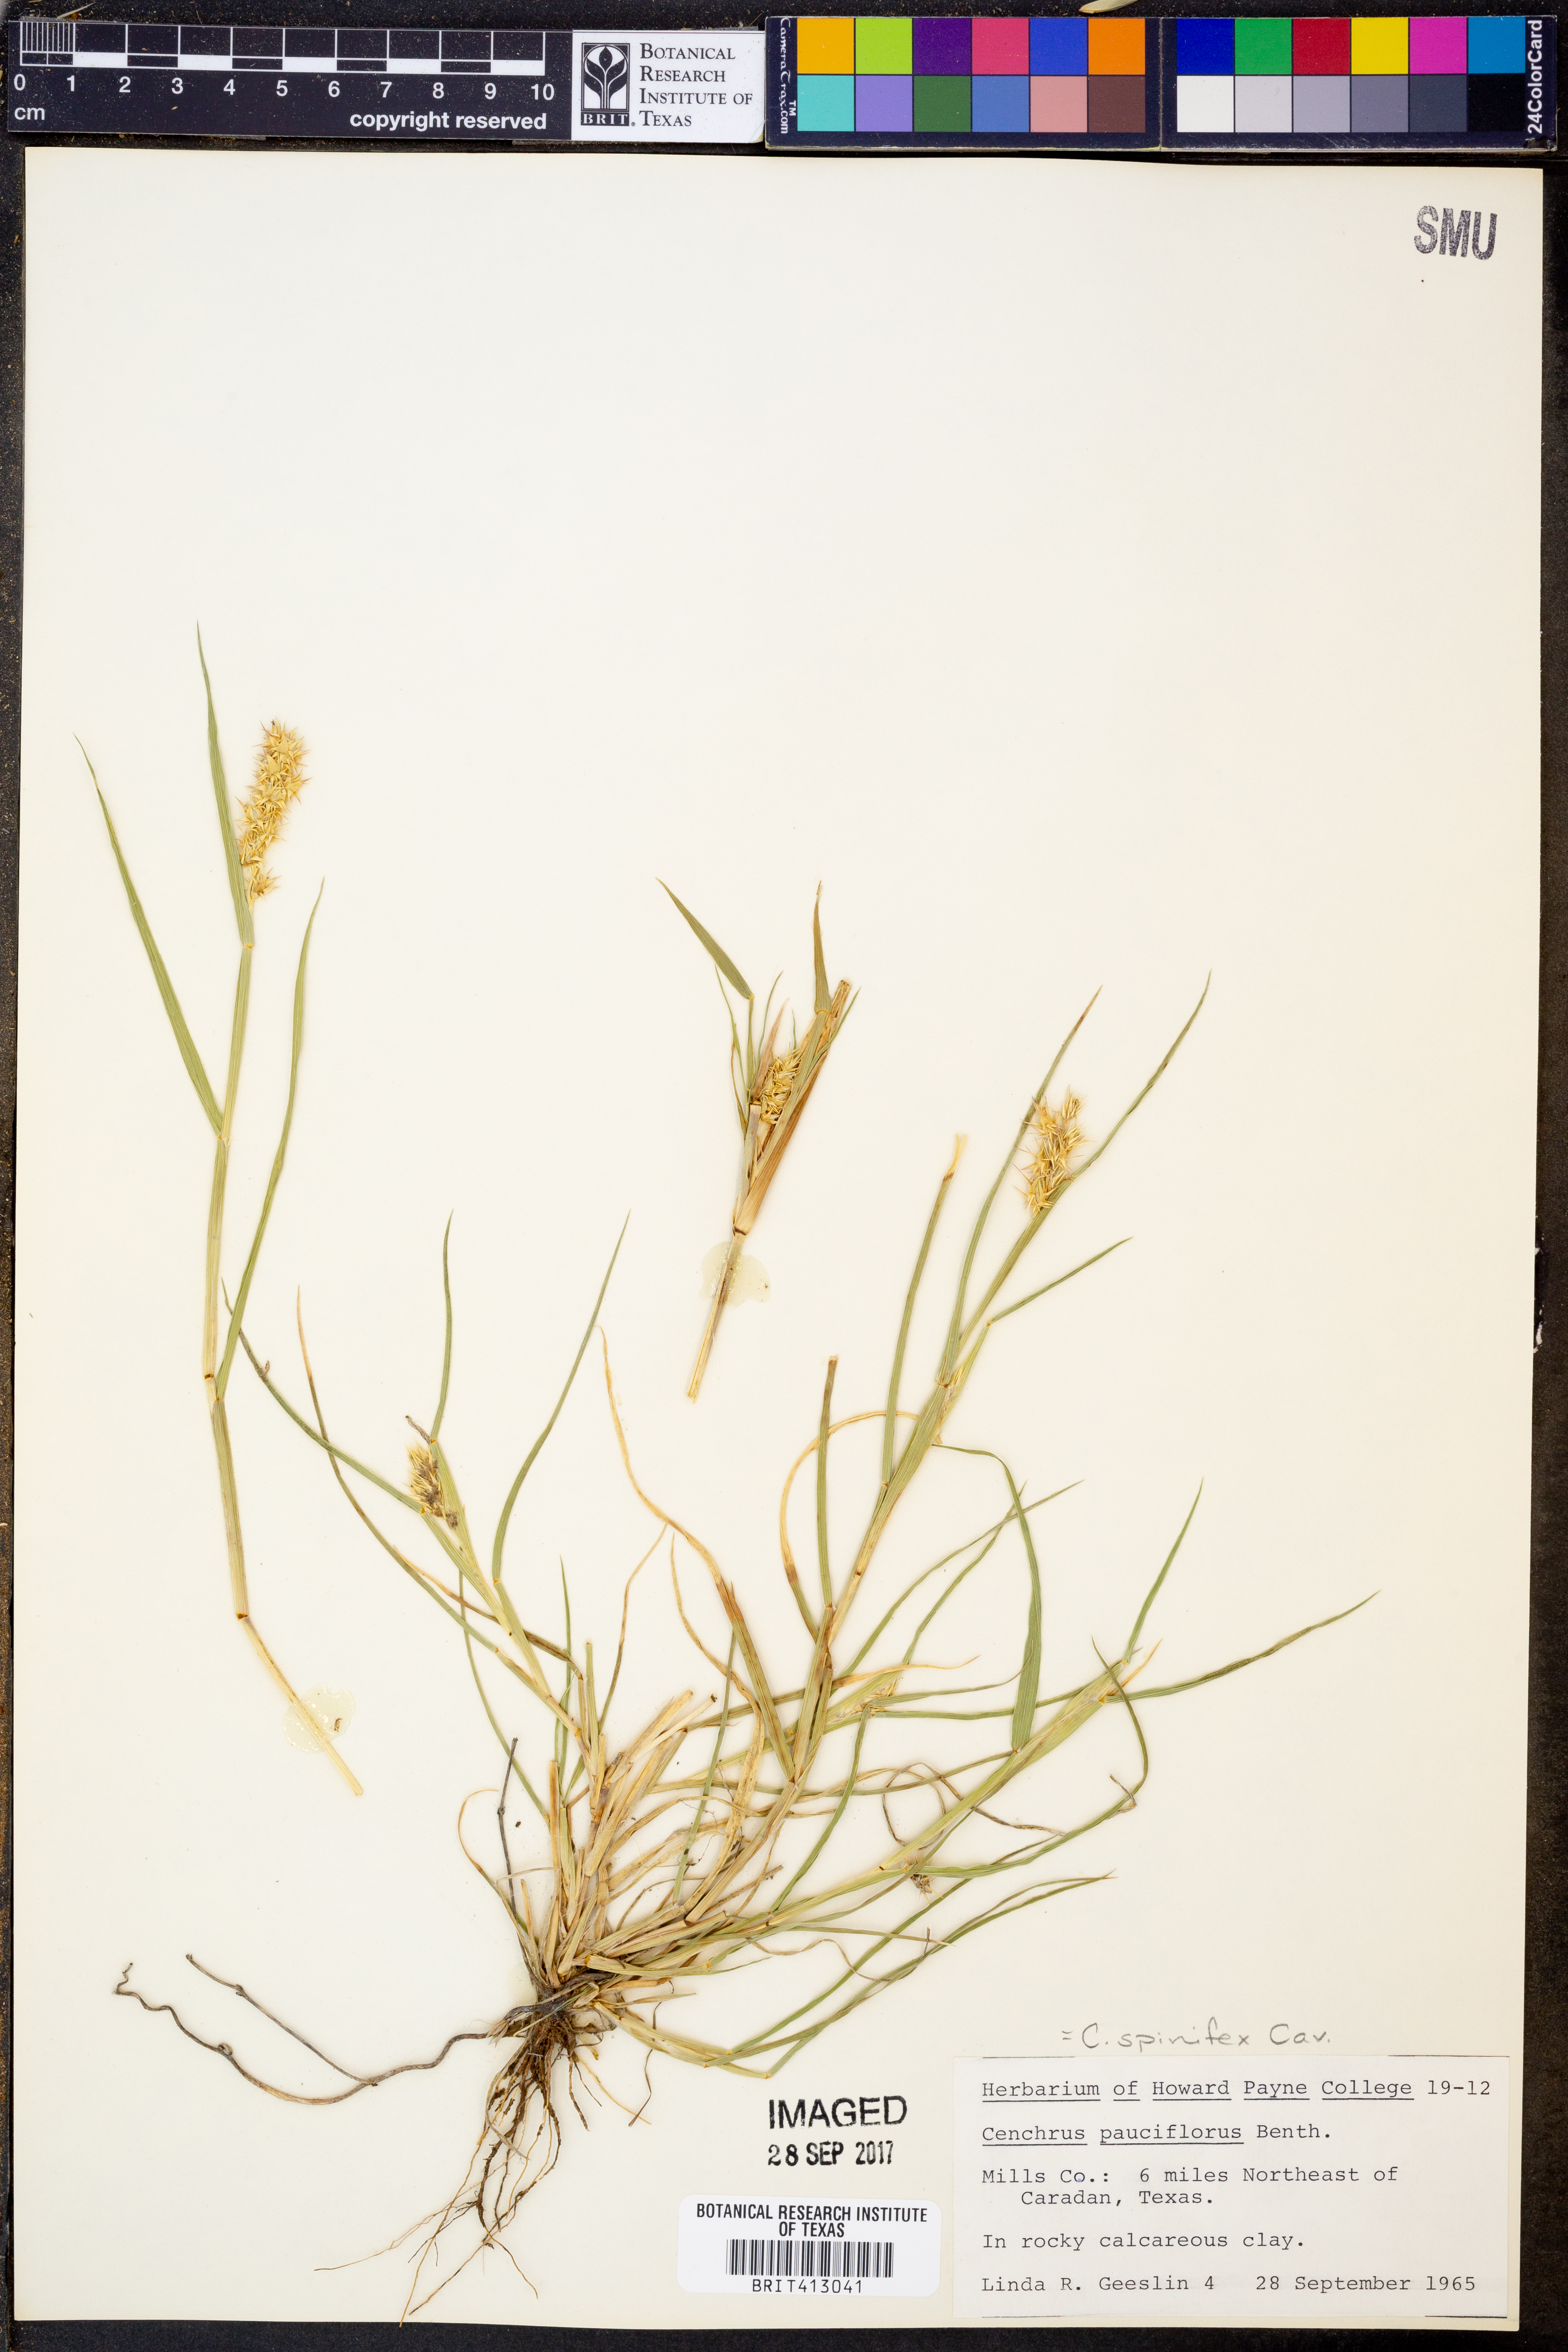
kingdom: Plantae
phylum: Tracheophyta
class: Liliopsida
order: Poales
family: Poaceae
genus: Cenchrus
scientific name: Cenchrus spinifex
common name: Coast sandbur
